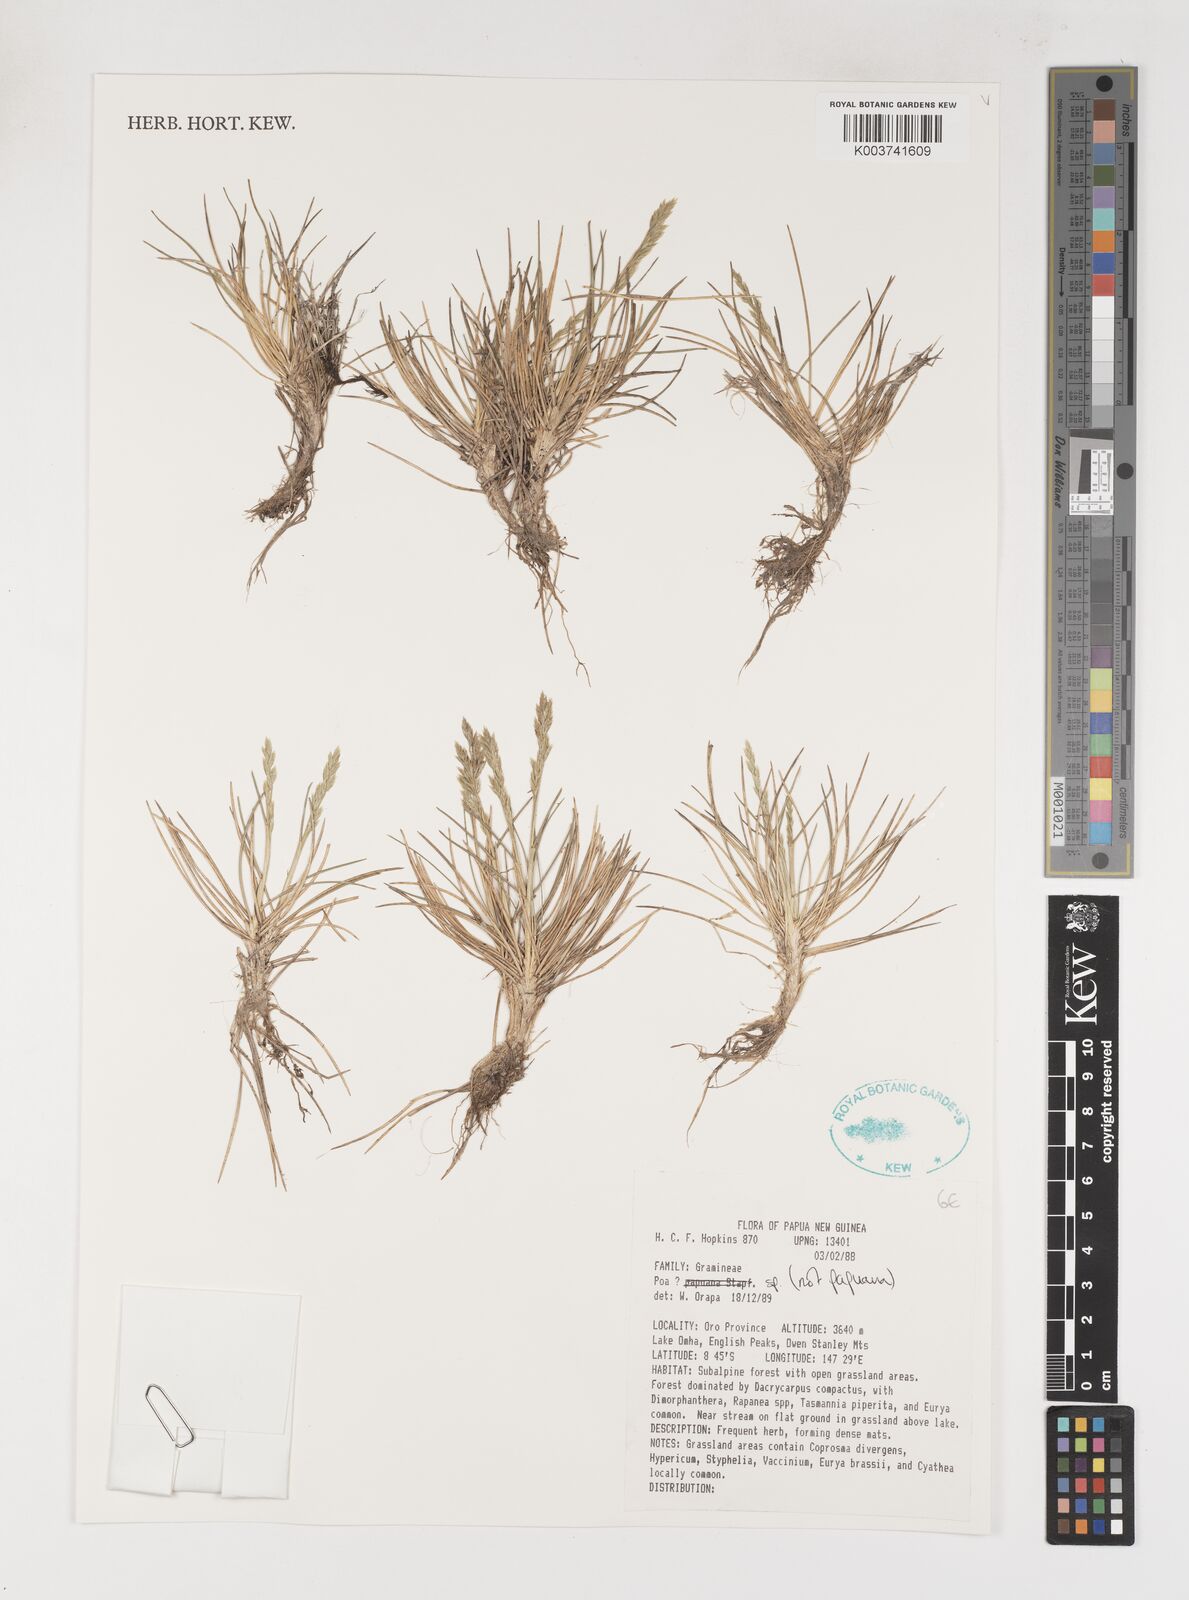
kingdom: Plantae
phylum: Tracheophyta
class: Liliopsida
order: Poales
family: Poaceae
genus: Poa
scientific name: Poa
